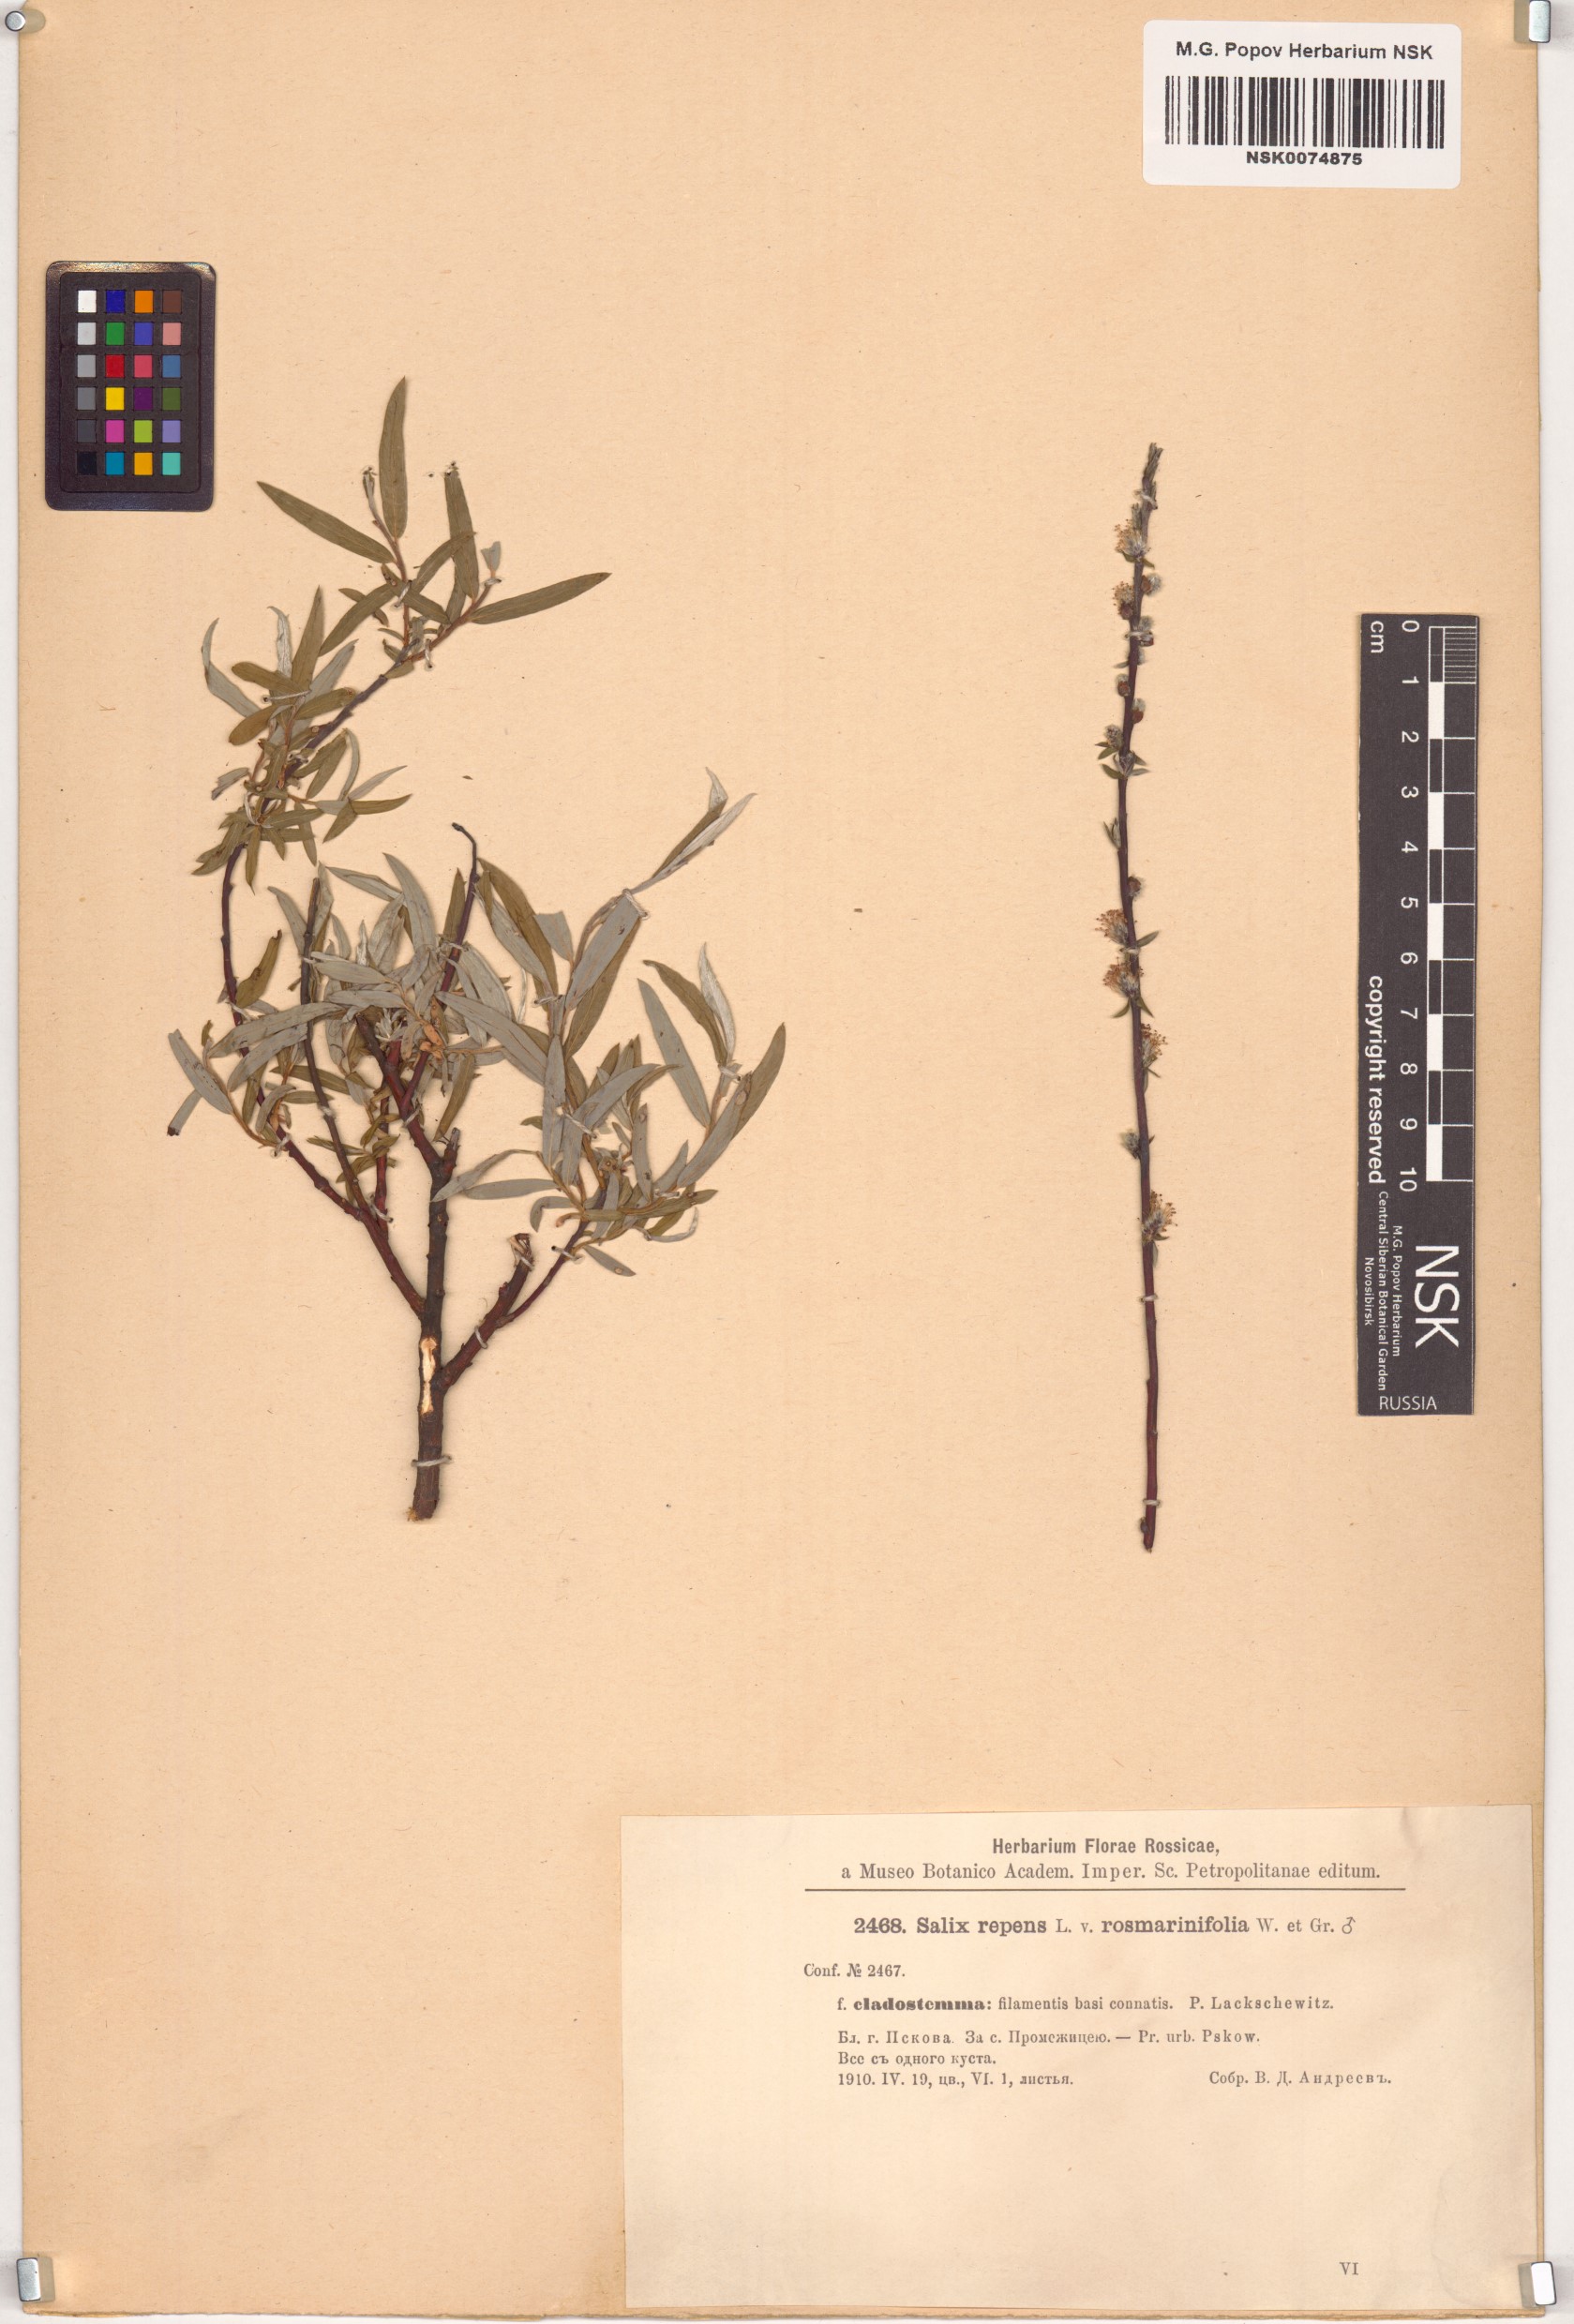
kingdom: Plantae
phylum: Tracheophyta
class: Magnoliopsida
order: Malpighiales
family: Salicaceae
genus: Salix
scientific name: Salix
